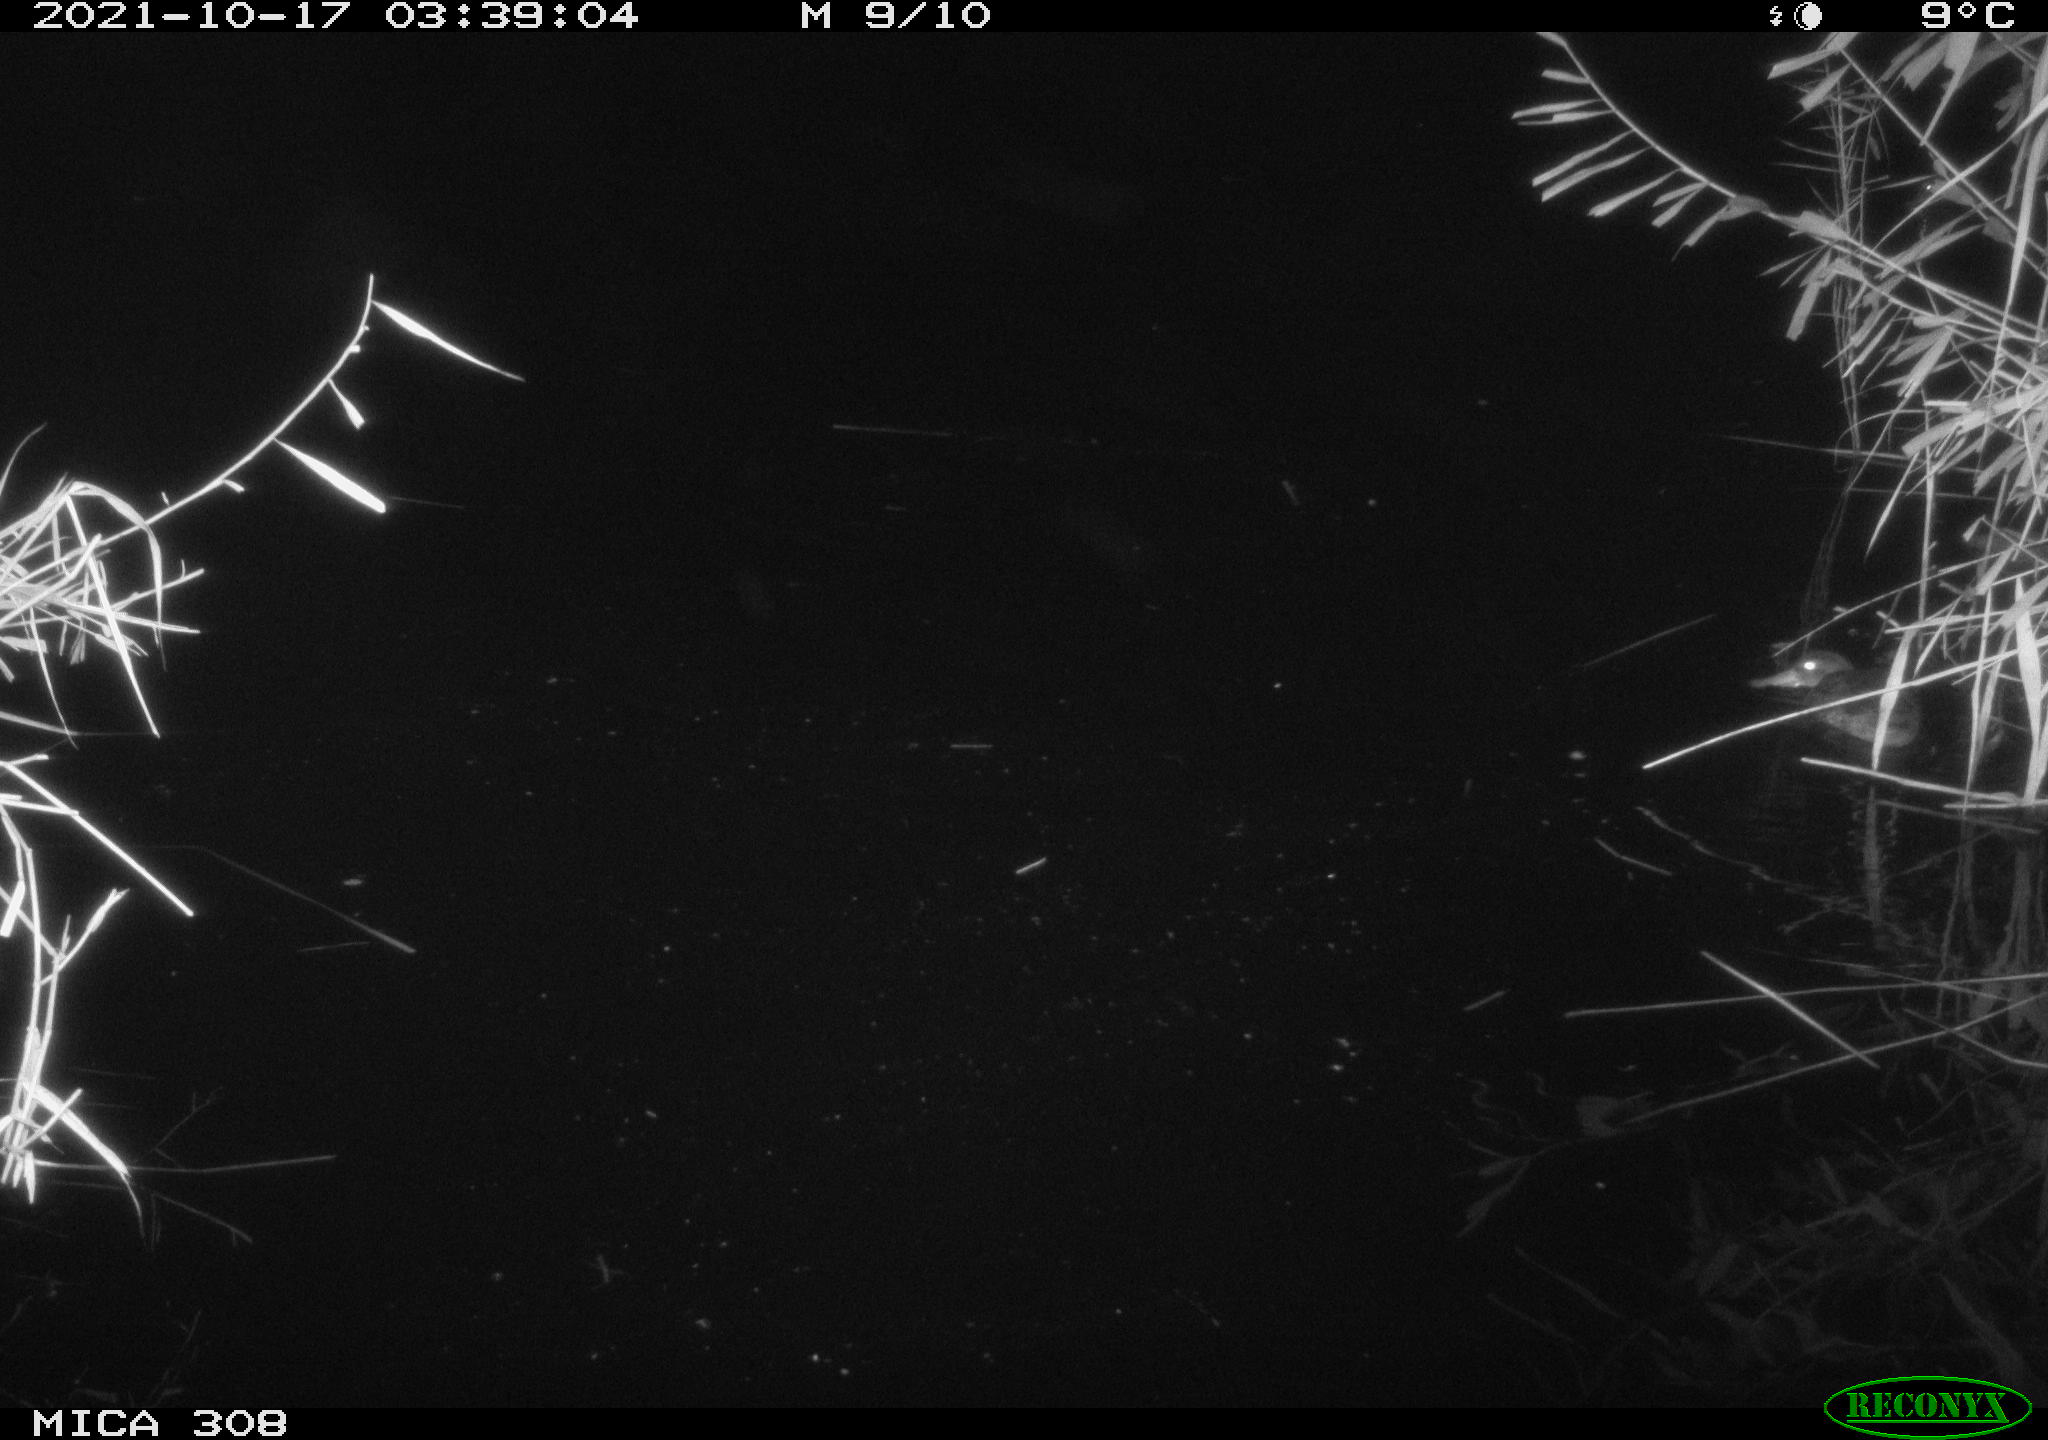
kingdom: Animalia
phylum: Chordata
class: Aves
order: Anseriformes
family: Anatidae
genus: Anas
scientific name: Anas platyrhynchos
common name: Mallard
